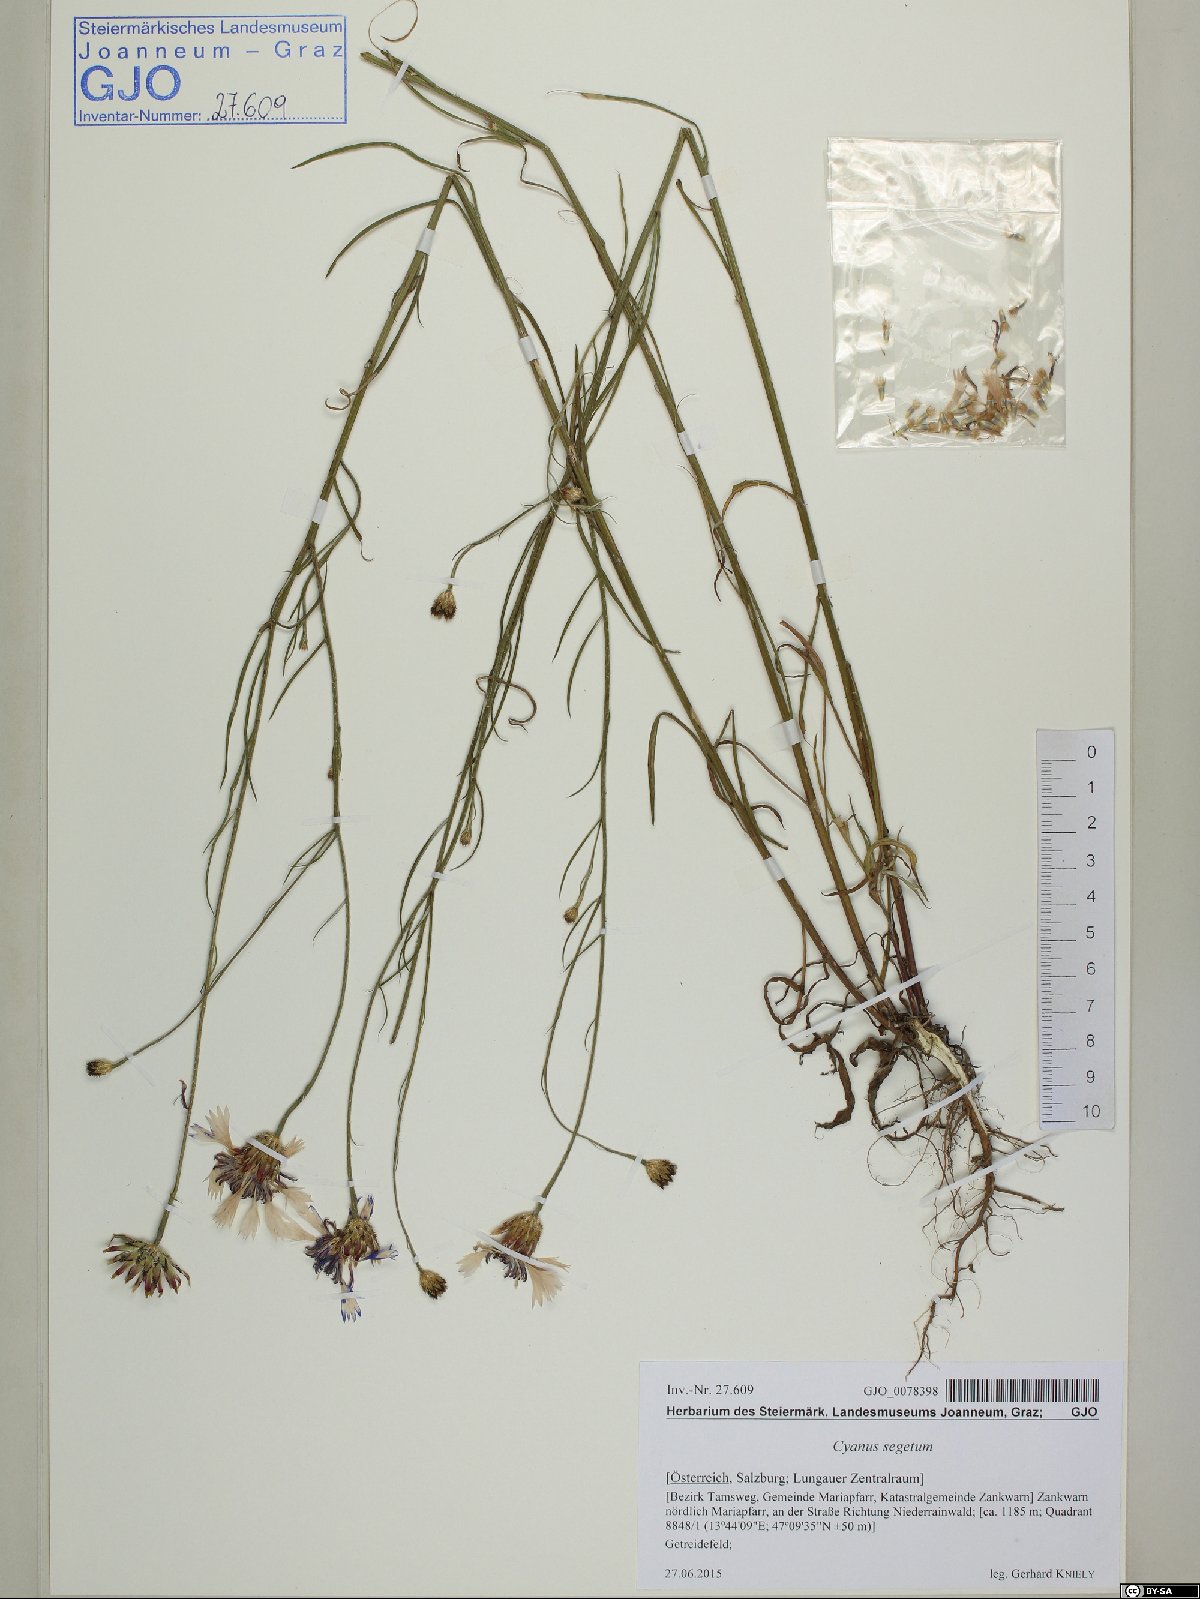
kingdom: Plantae
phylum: Tracheophyta
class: Magnoliopsida
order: Asterales
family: Asteraceae
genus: Centaurea
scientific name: Centaurea cyanus
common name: Cornflower
